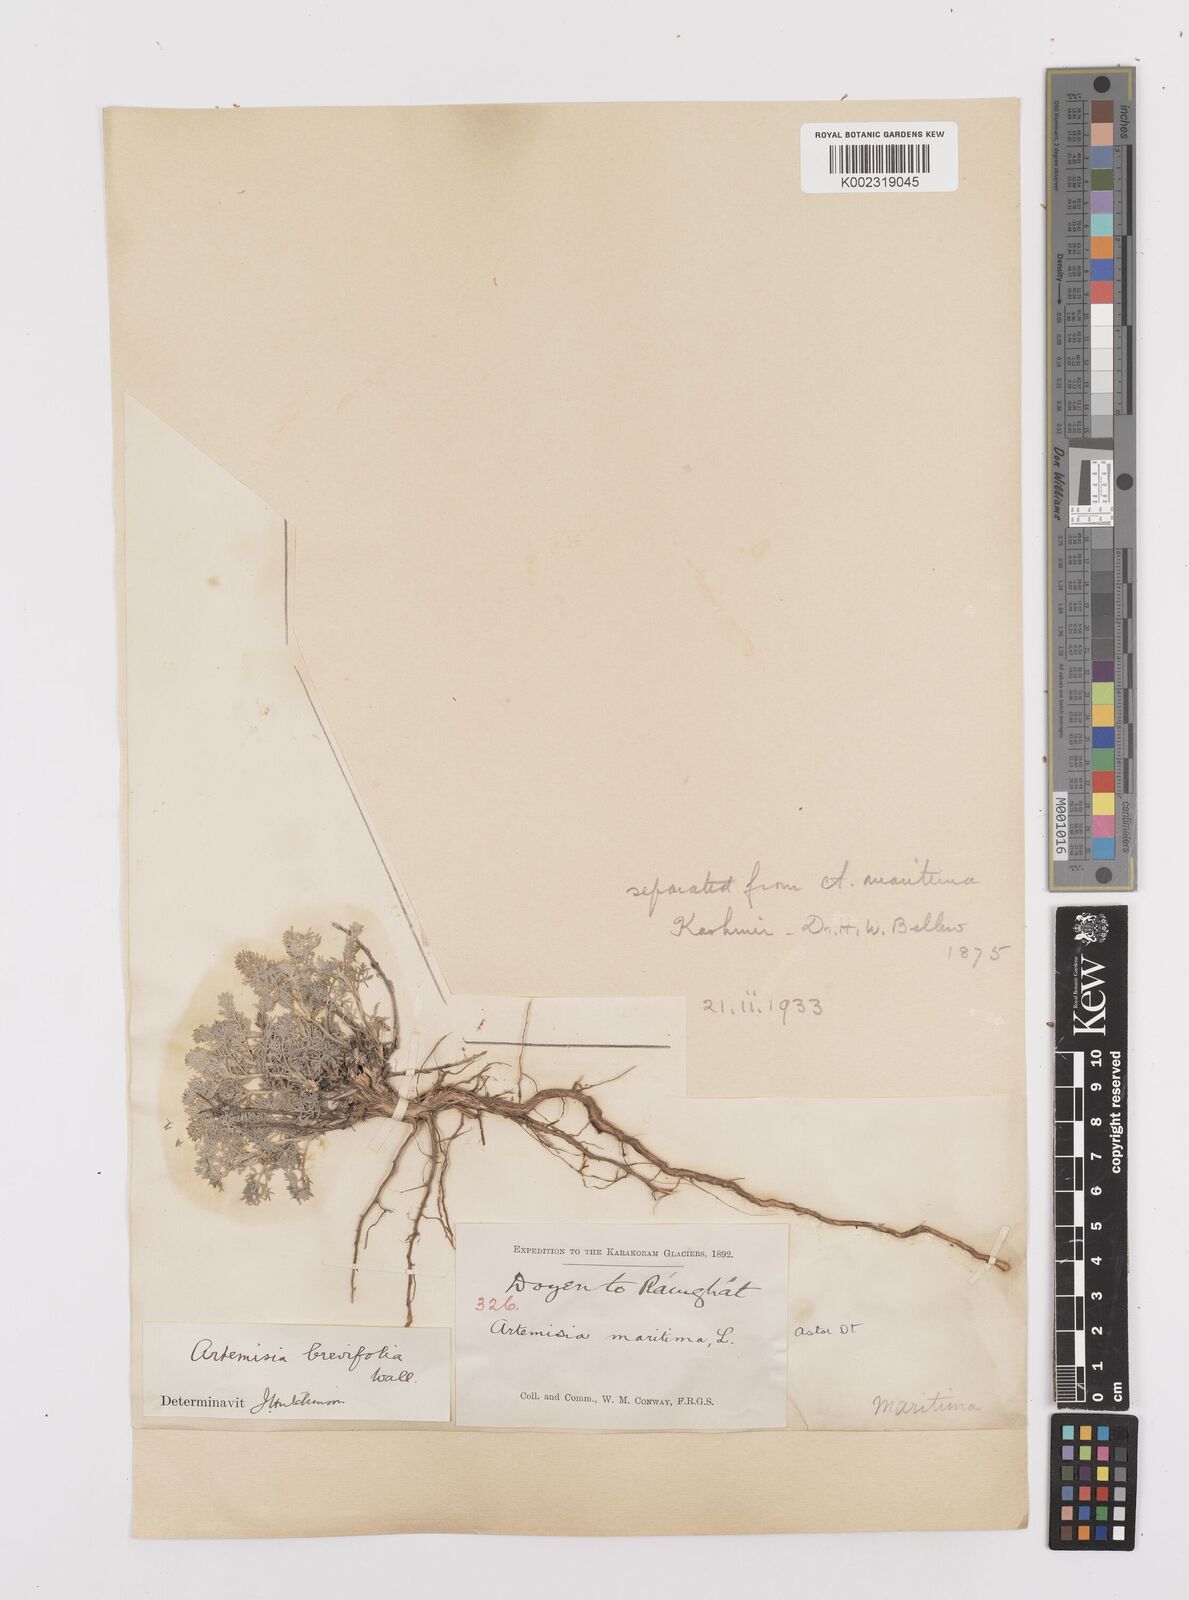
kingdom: Plantae
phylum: Tracheophyta
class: Magnoliopsida
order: Asterales
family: Asteraceae
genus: Artemisia
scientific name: Artemisia brevifolia
